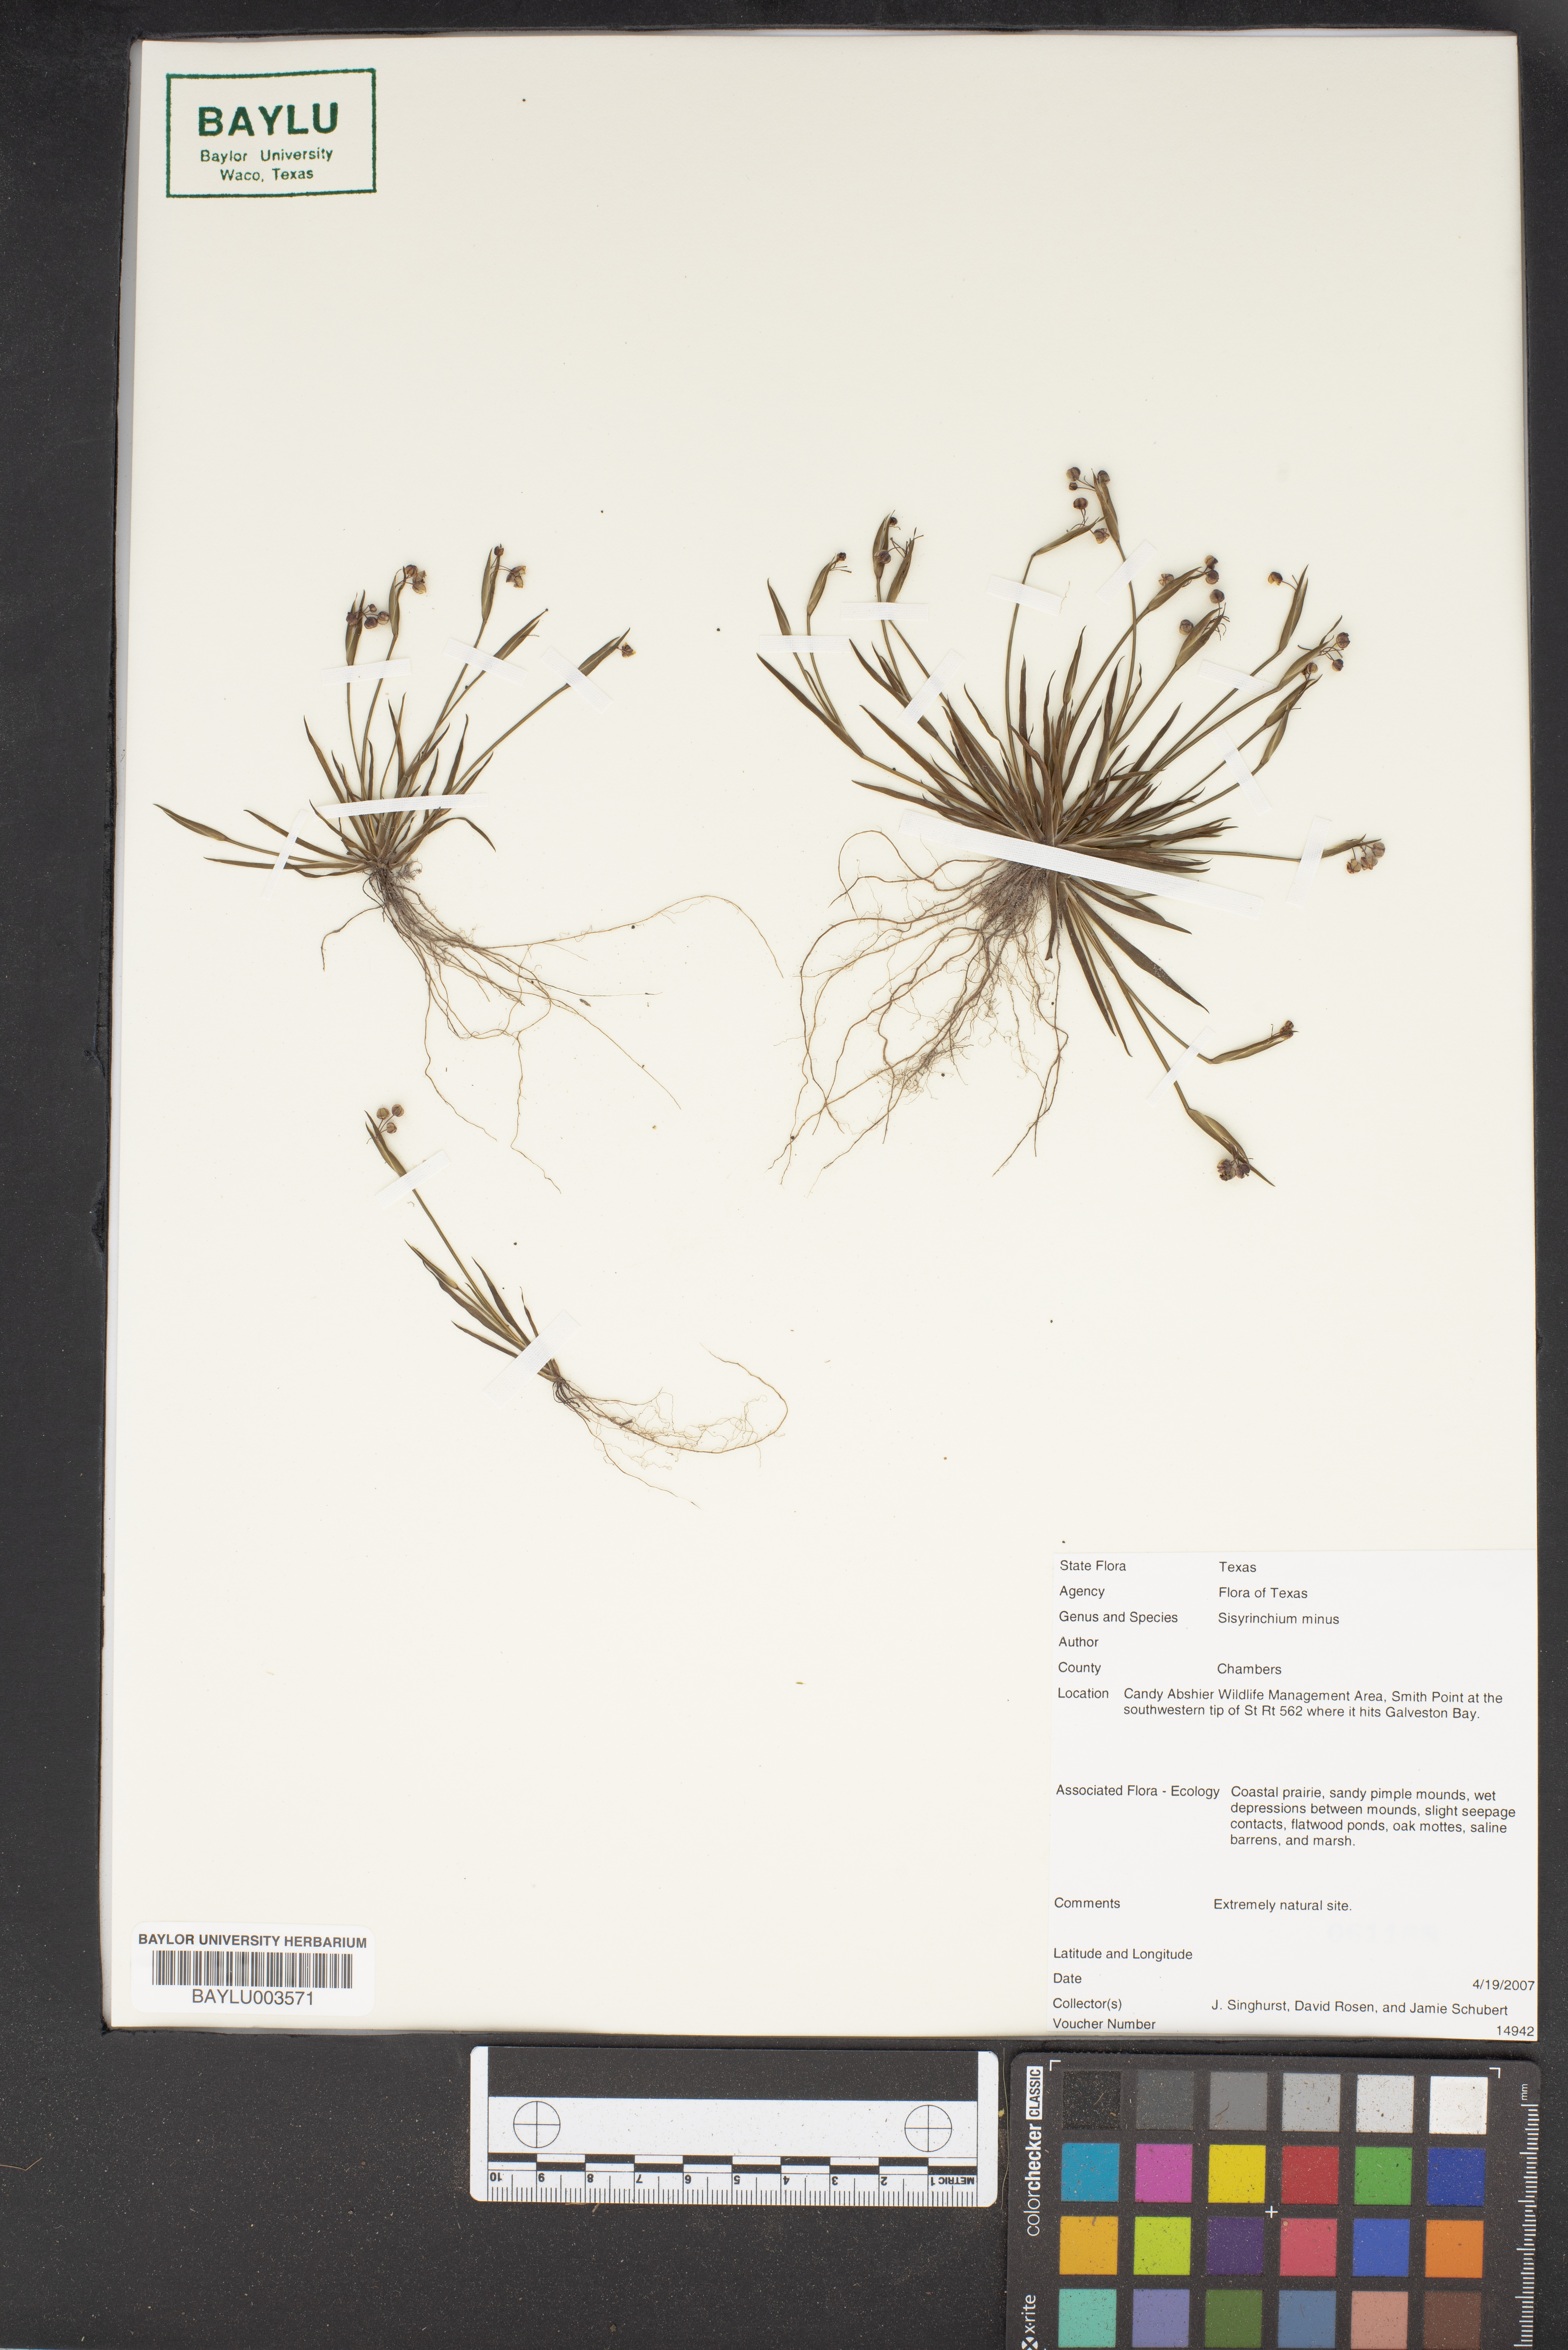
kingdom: Plantae
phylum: Tracheophyta
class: Liliopsida
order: Asparagales
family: Iridaceae
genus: Sisyrinchium
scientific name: Sisyrinchium minus
